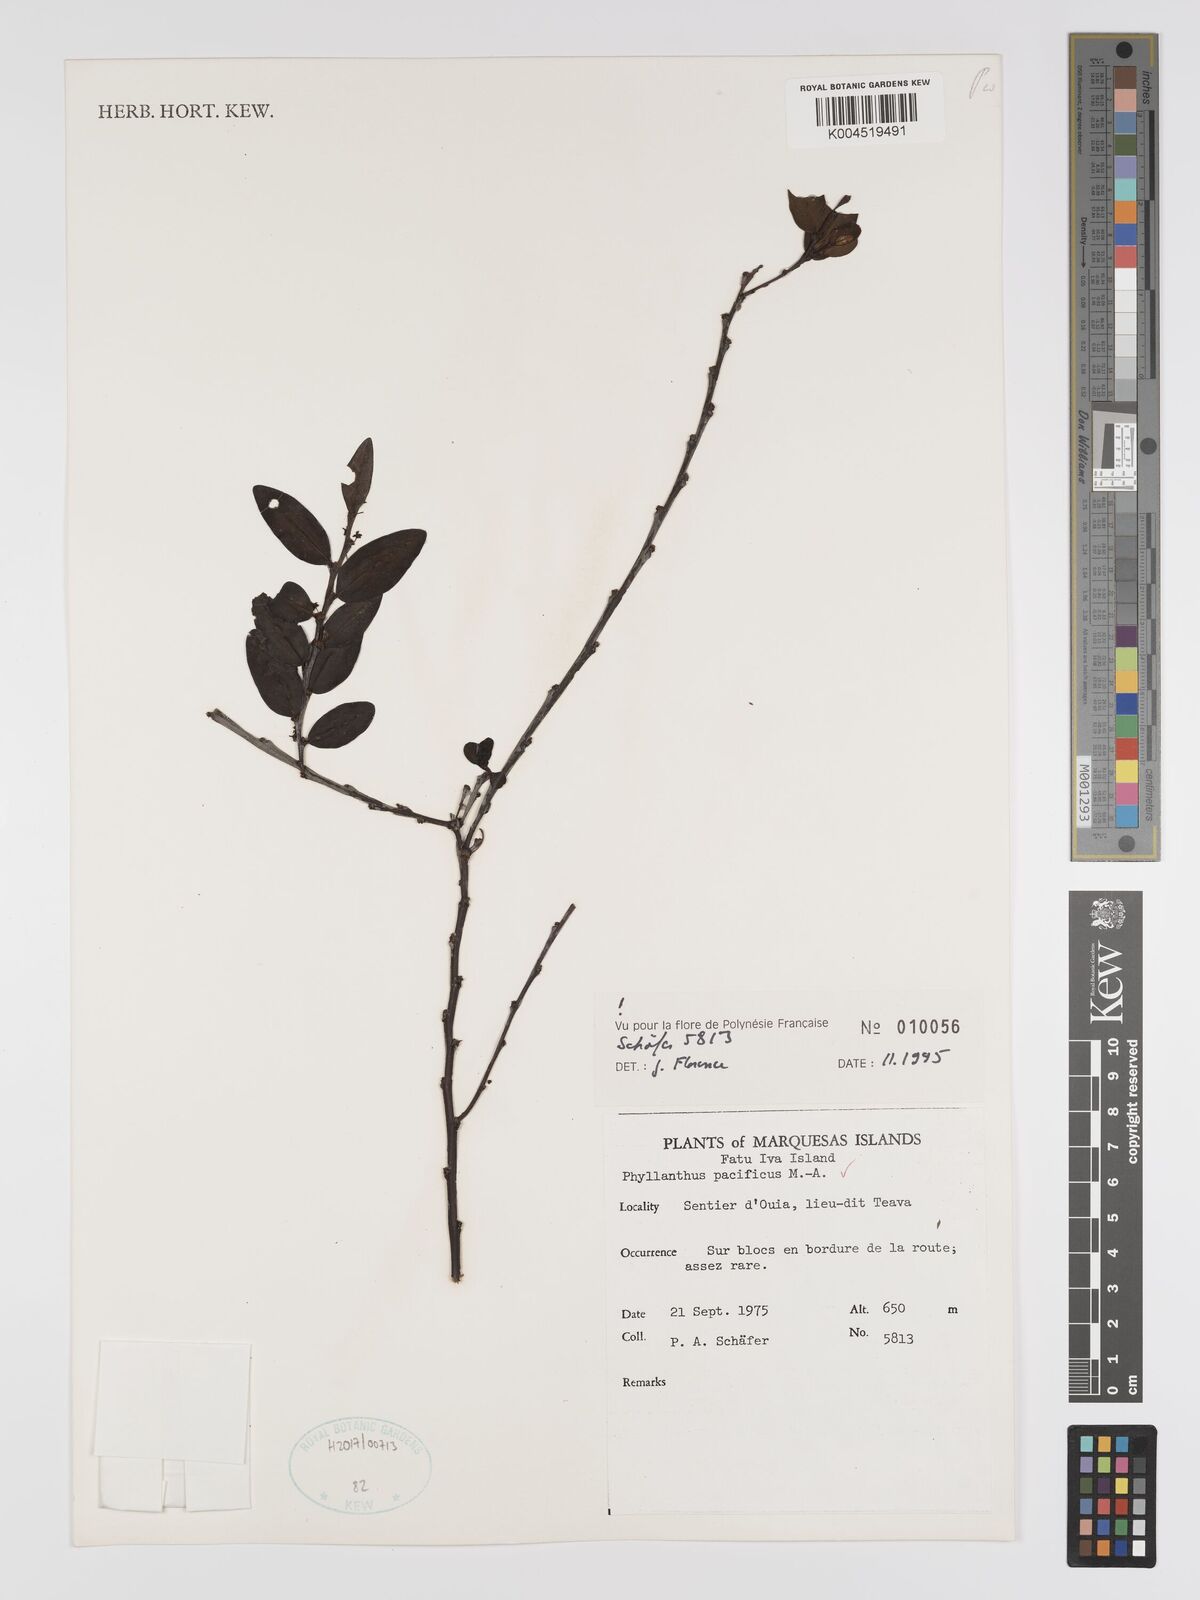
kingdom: Plantae
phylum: Tracheophyta
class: Magnoliopsida
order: Malpighiales
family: Phyllanthaceae
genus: Phyllanthus
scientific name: Phyllanthus pacificus
